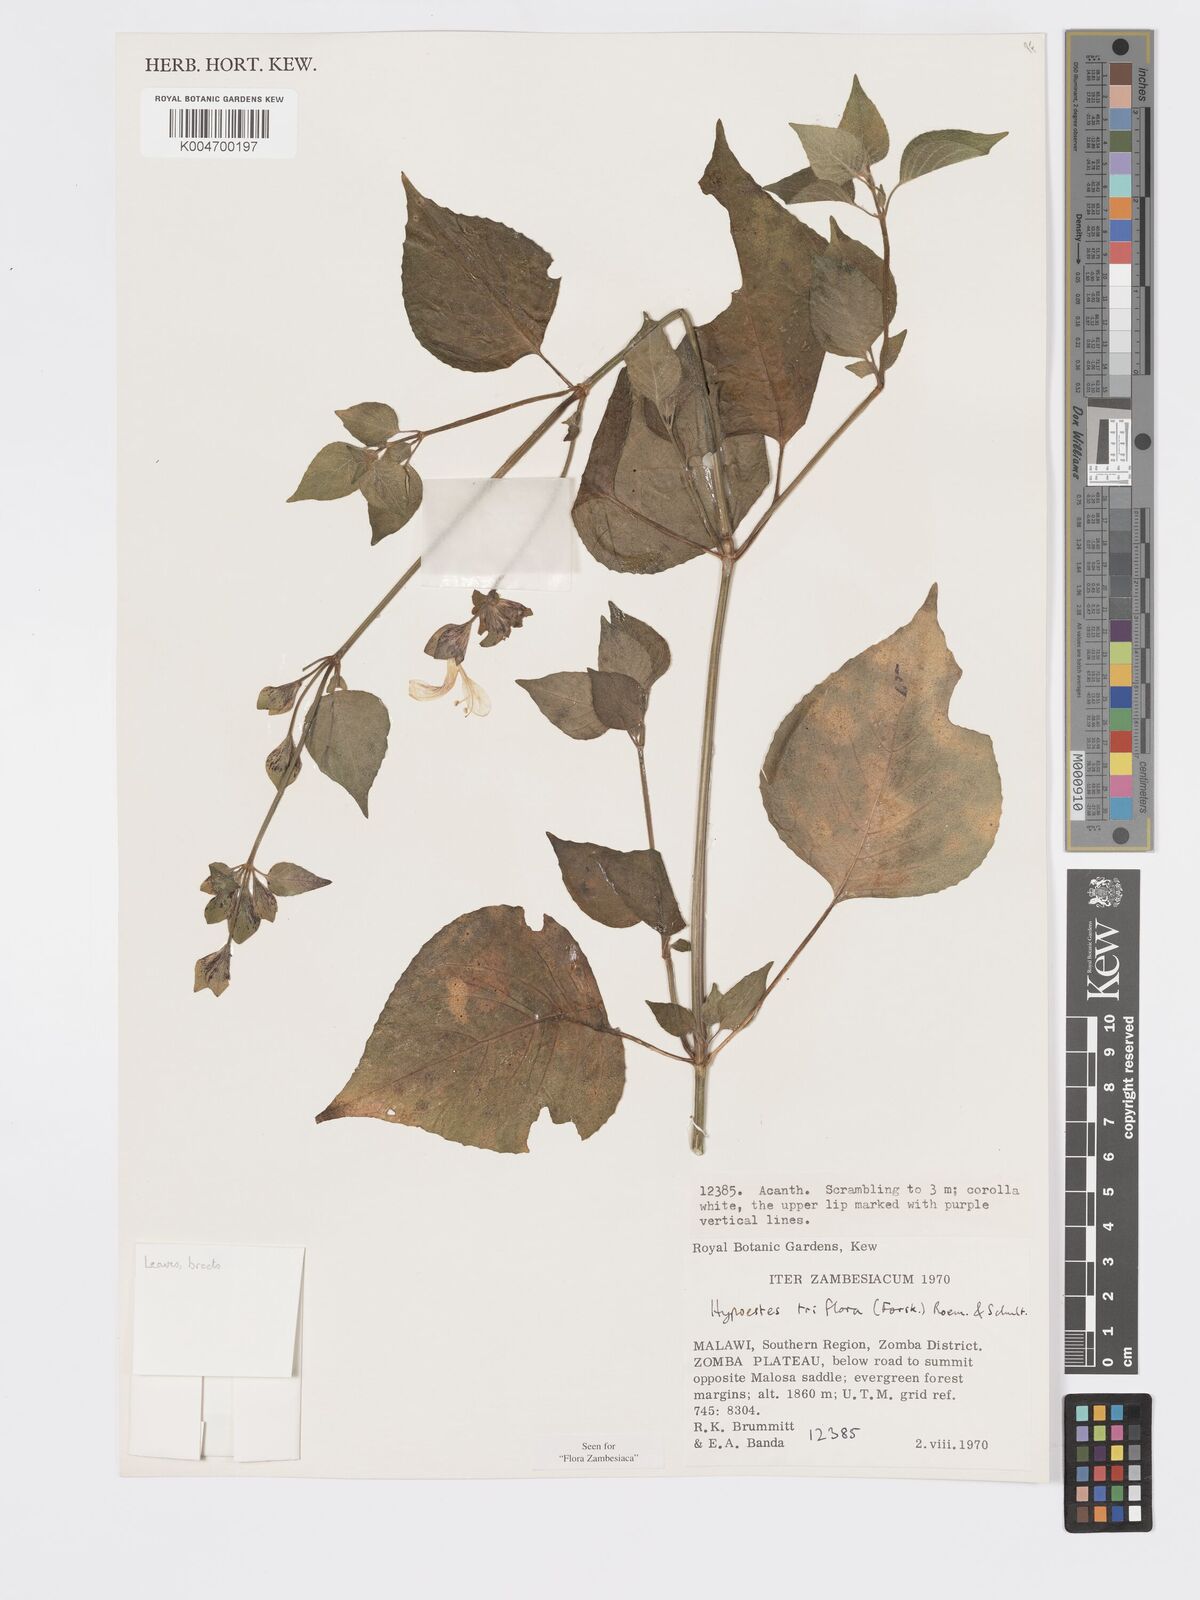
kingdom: Plantae
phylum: Tracheophyta
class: Magnoliopsida
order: Lamiales
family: Acanthaceae
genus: Hypoestes
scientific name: Hypoestes triflora
